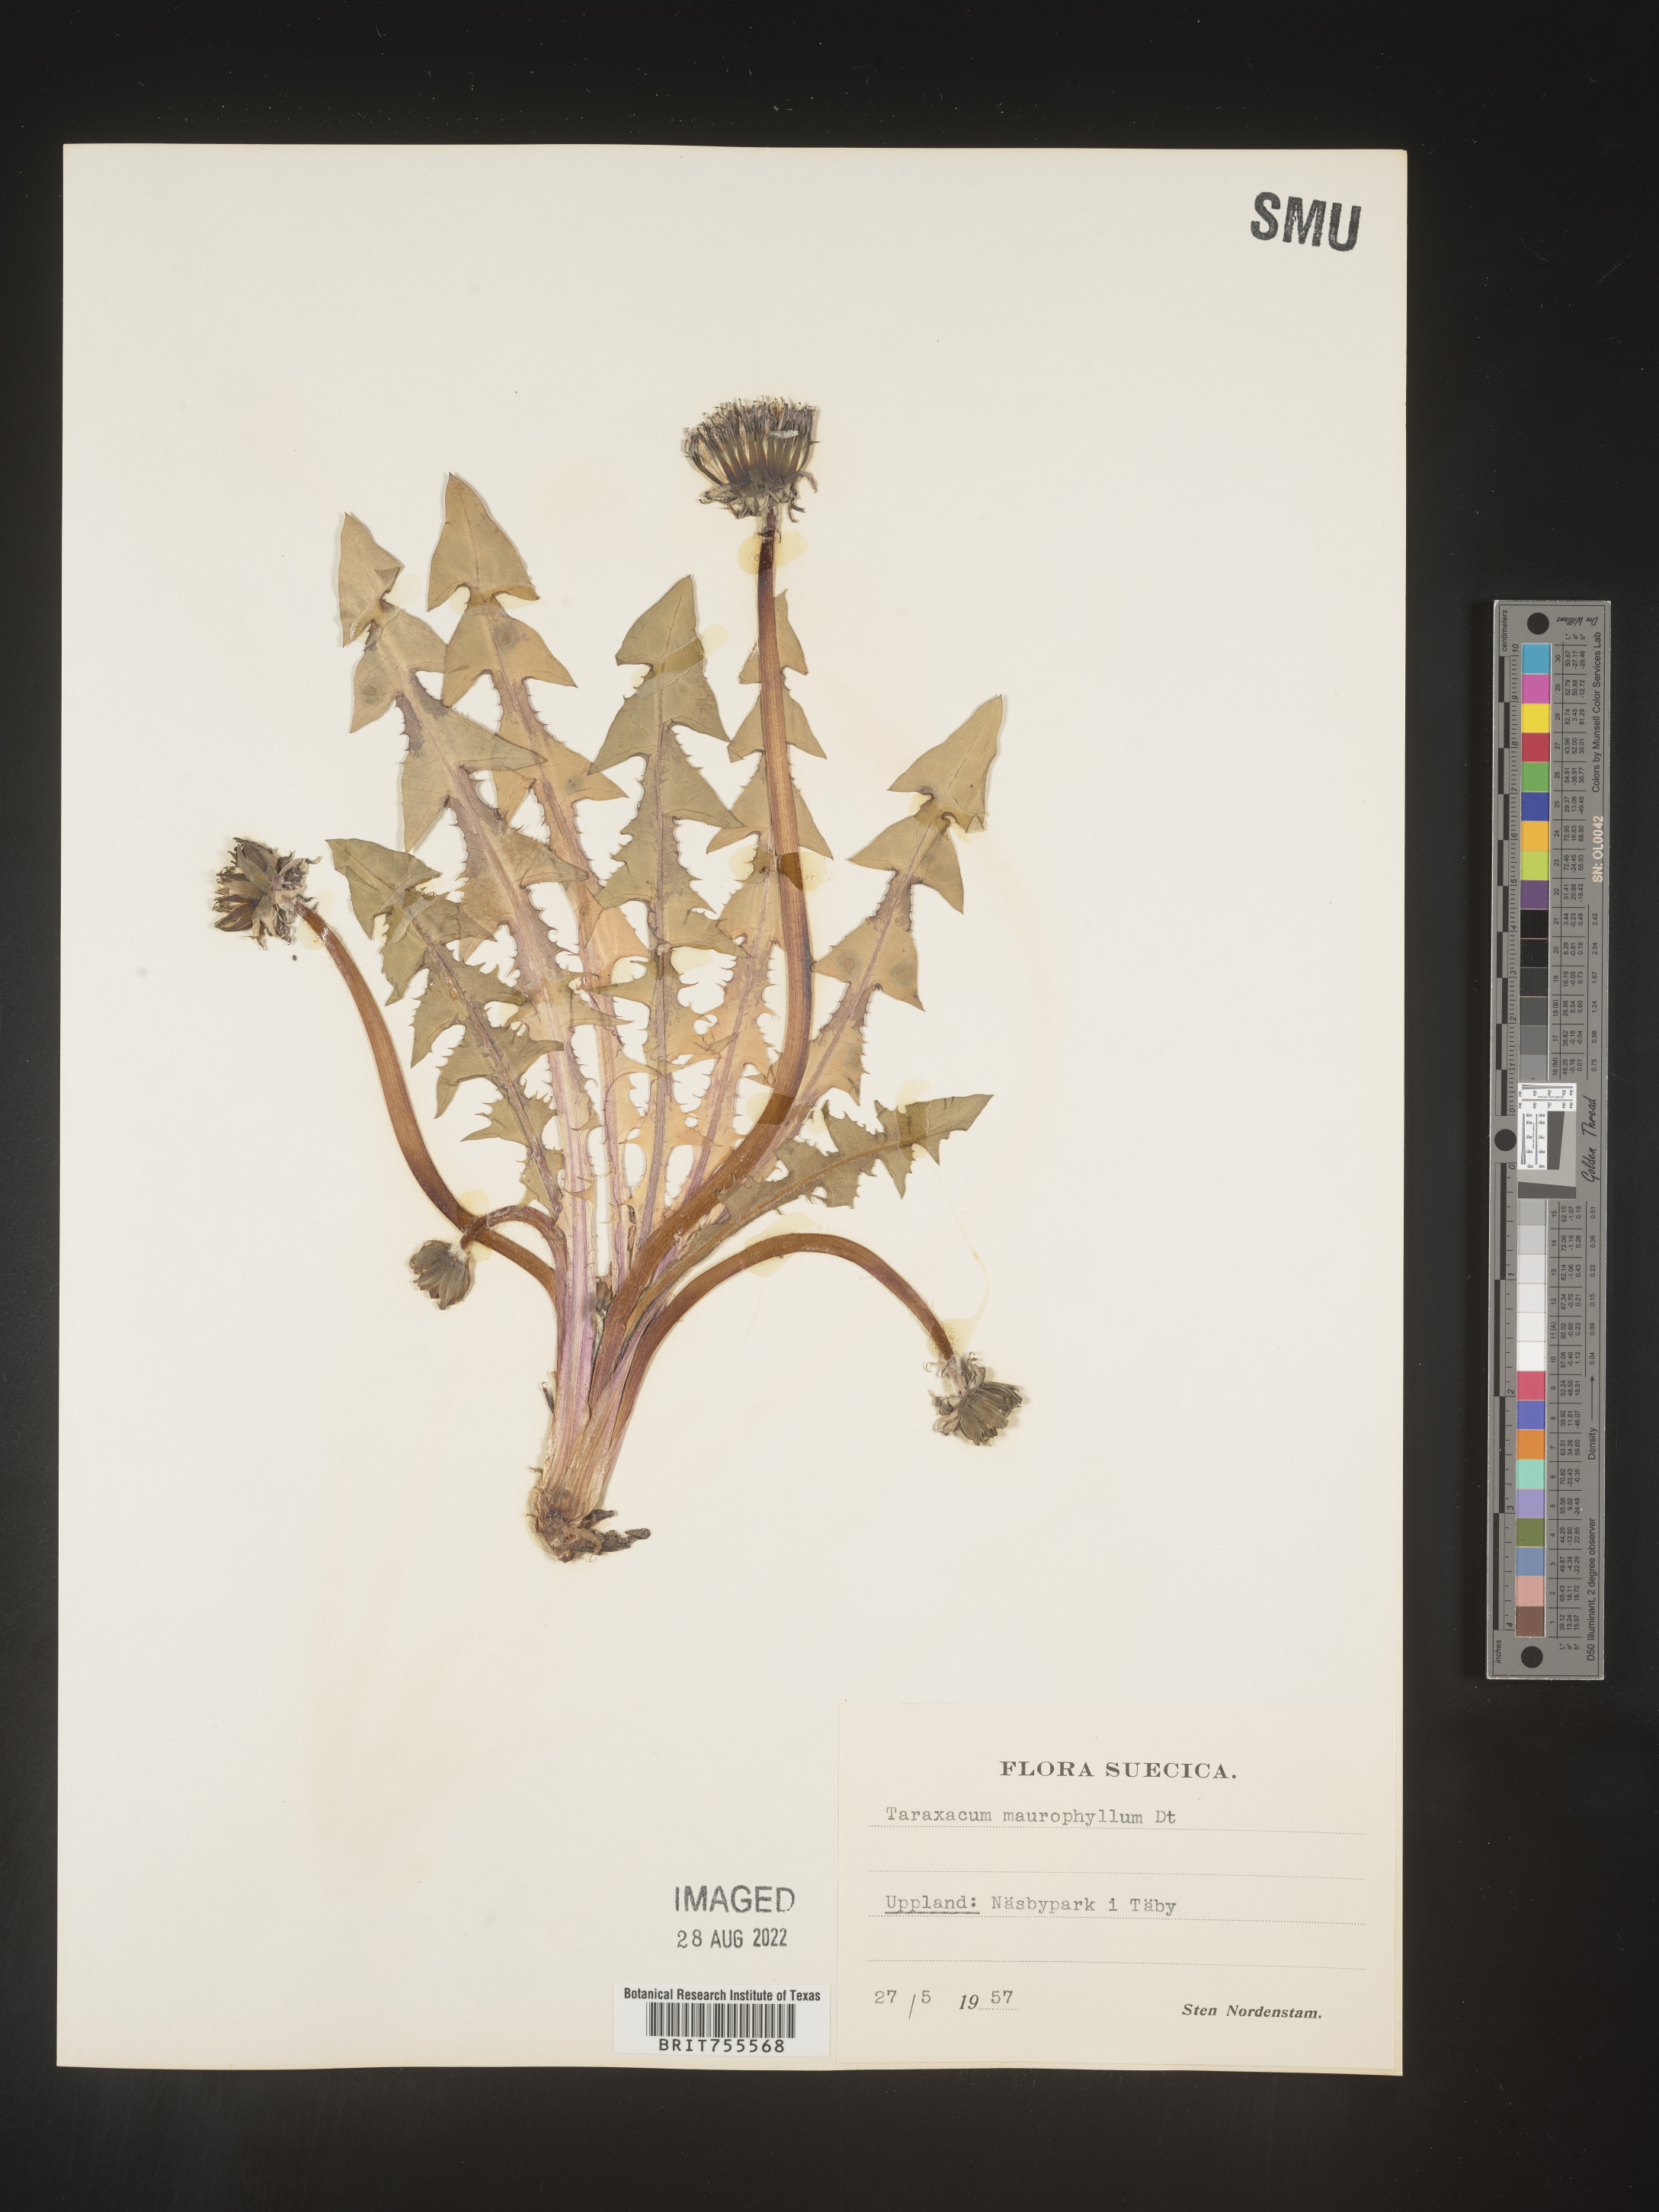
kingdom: Plantae
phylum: Tracheophyta
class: Magnoliopsida
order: Asterales
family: Asteraceae
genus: Taraxacum
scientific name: Taraxacum
